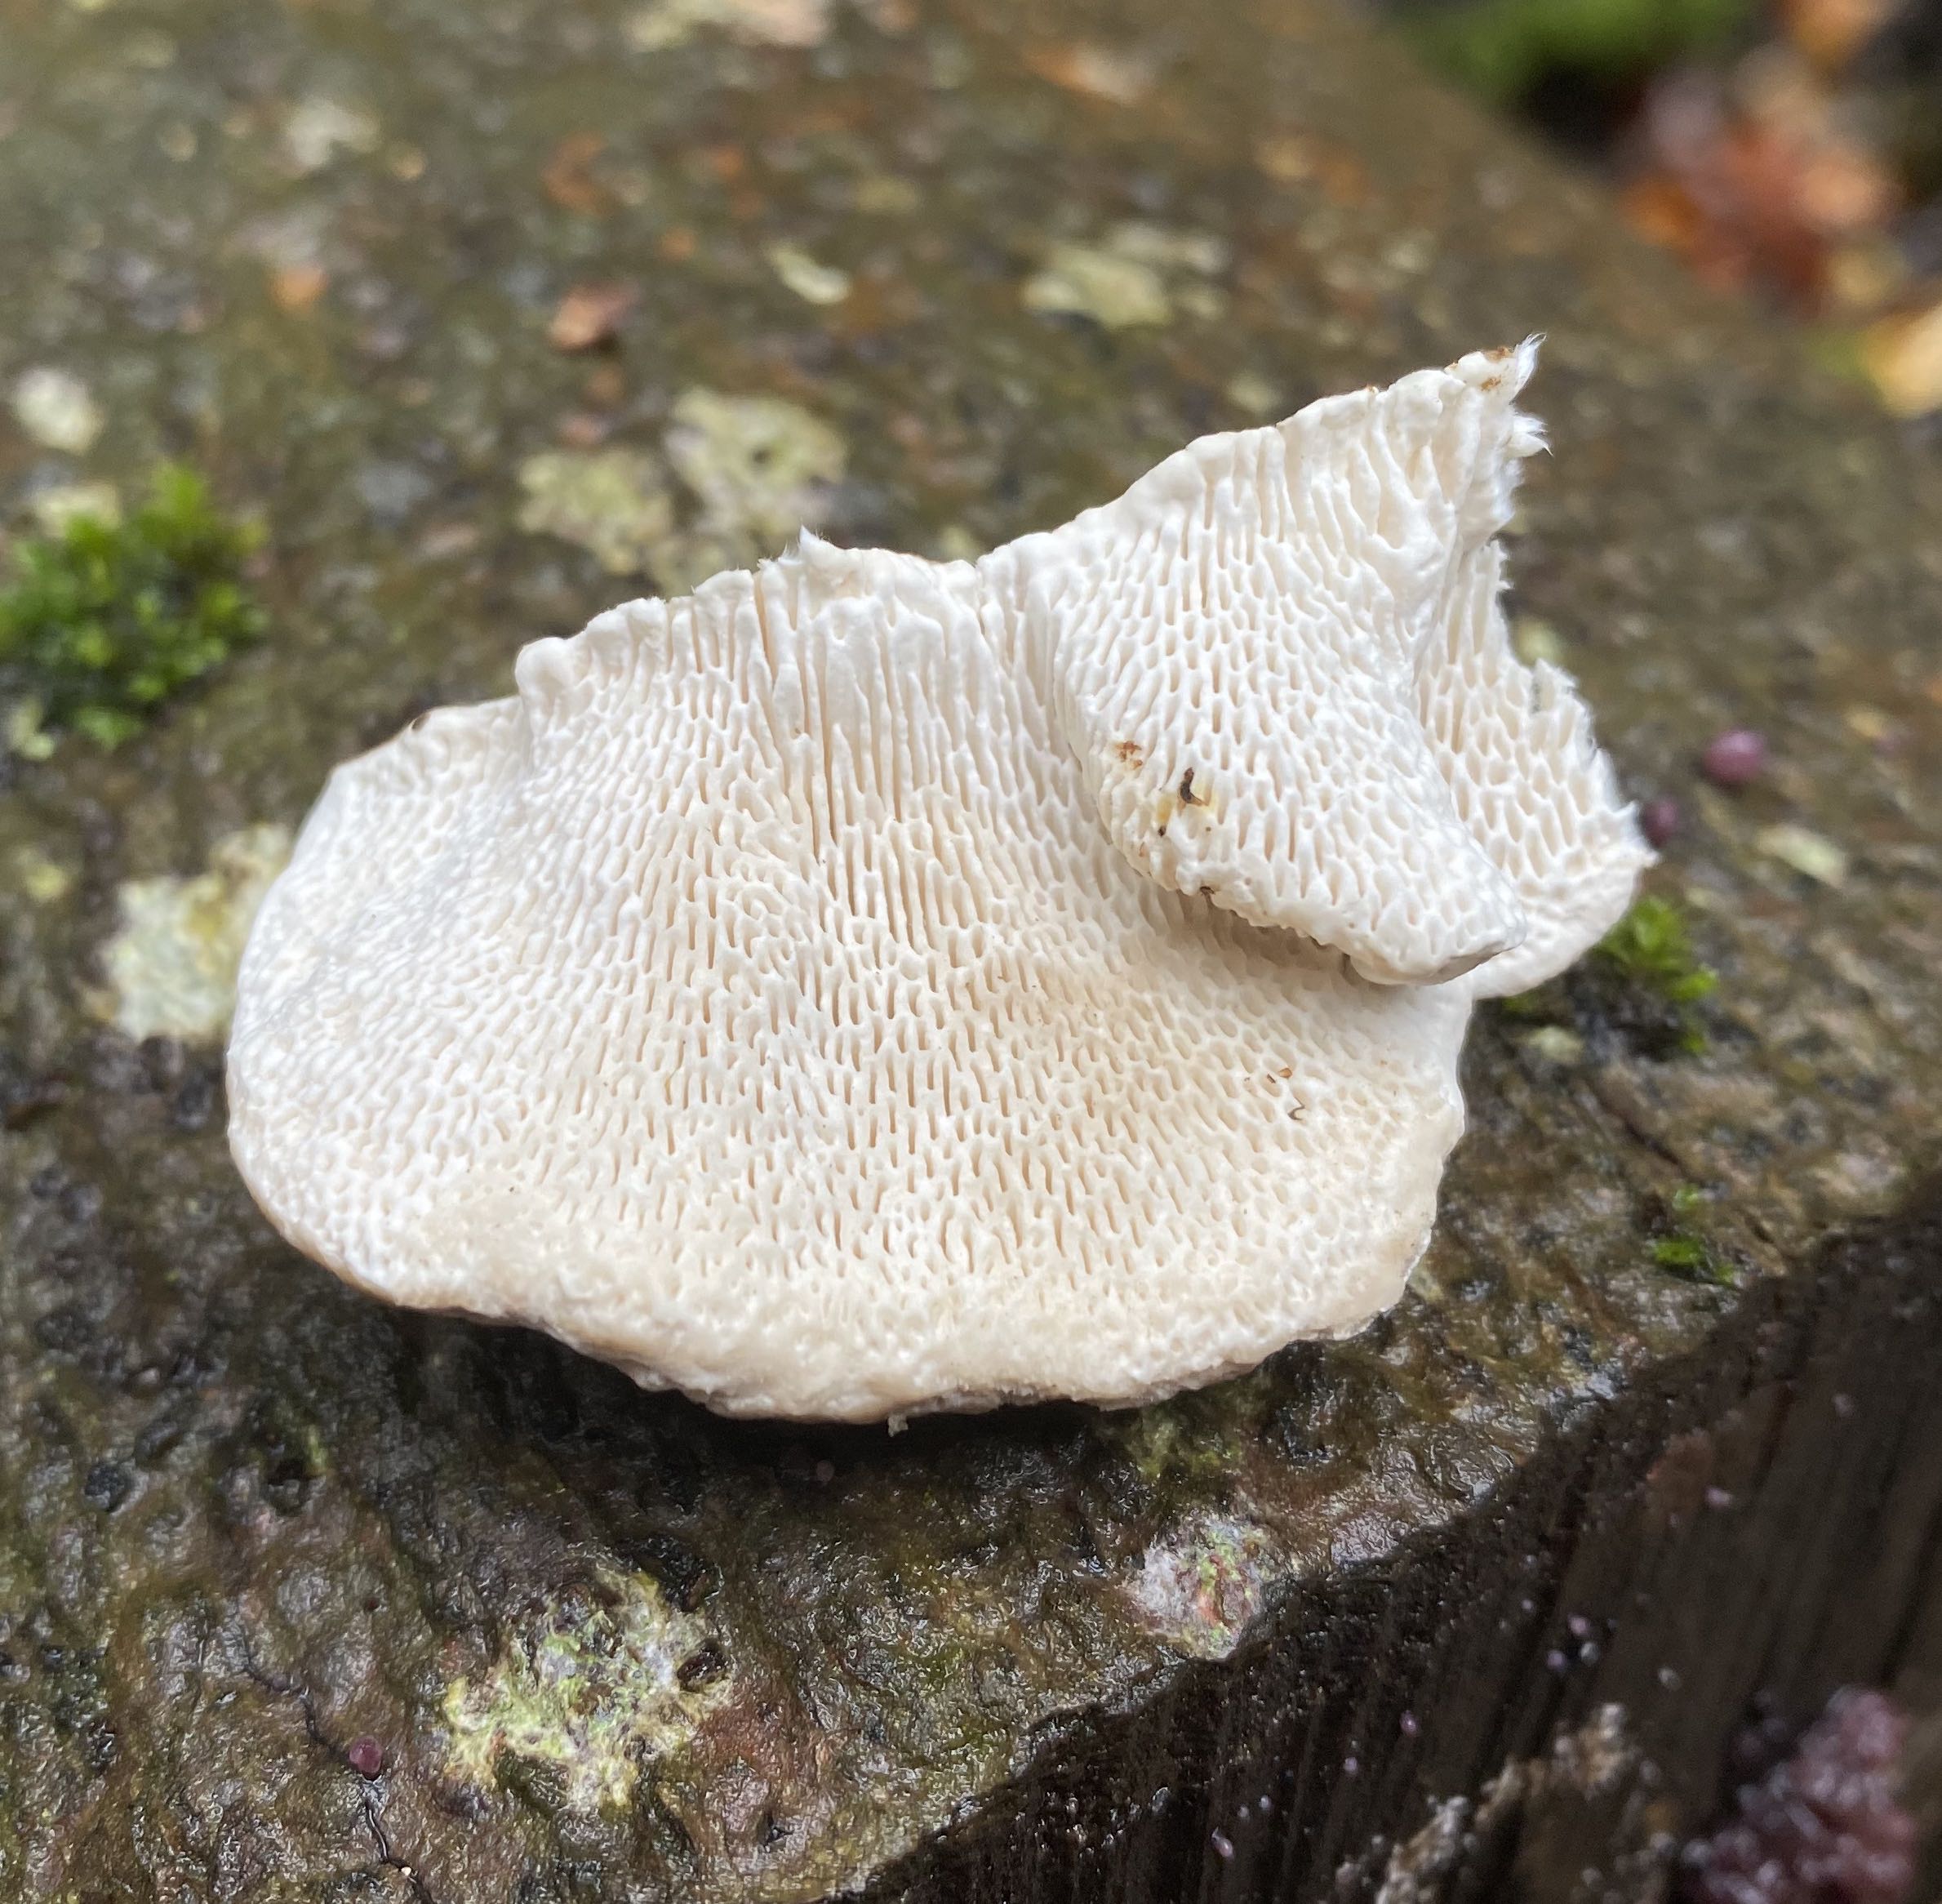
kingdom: Fungi
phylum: Basidiomycota
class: Agaricomycetes
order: Polyporales
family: Polyporaceae
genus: Trametes
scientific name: Trametes gibbosa
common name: puklet læderporesvamp
